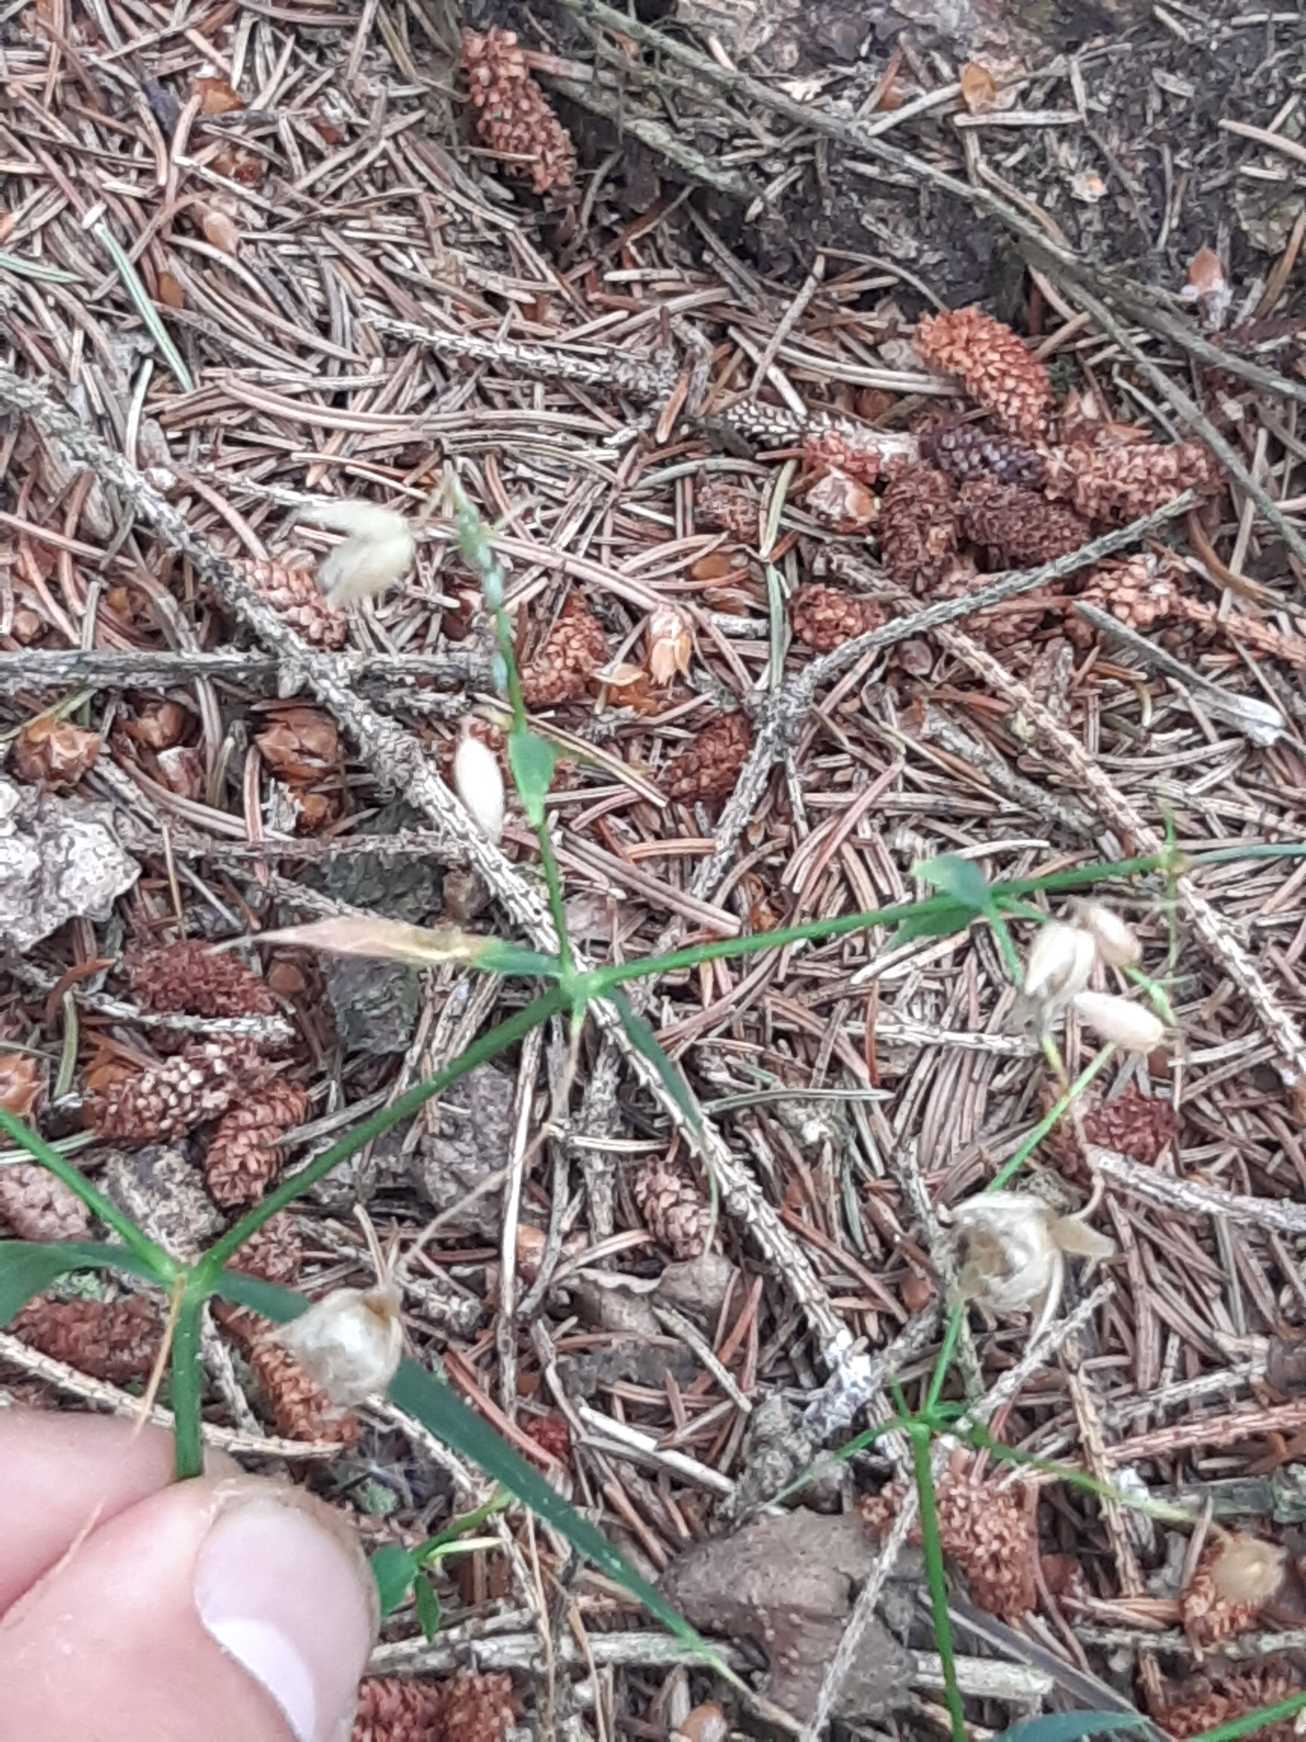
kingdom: Plantae
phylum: Tracheophyta
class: Magnoliopsida
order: Caryophyllales
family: Caryophyllaceae
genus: Rabelera
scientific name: Rabelera holostea
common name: Stor fladstjerne
